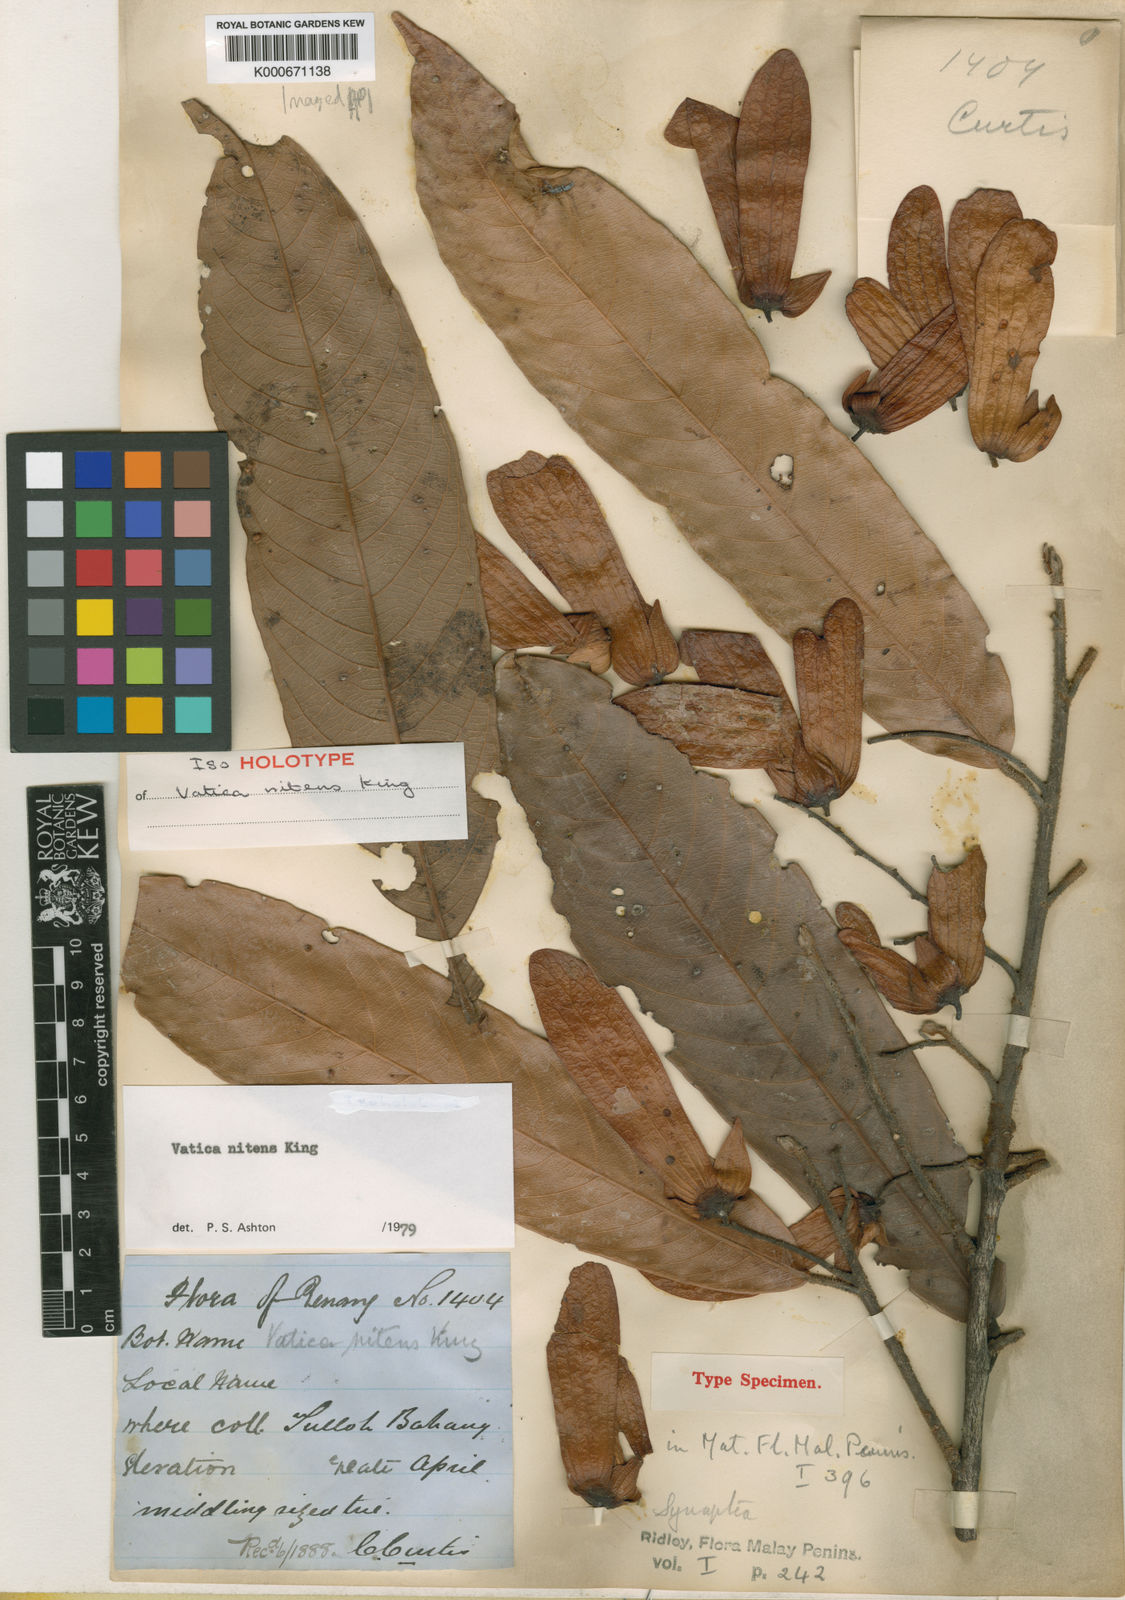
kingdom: Plantae
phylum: Tracheophyta
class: Magnoliopsida
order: Malvales
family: Dipterocarpaceae
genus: Vatica
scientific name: Vatica nitens
